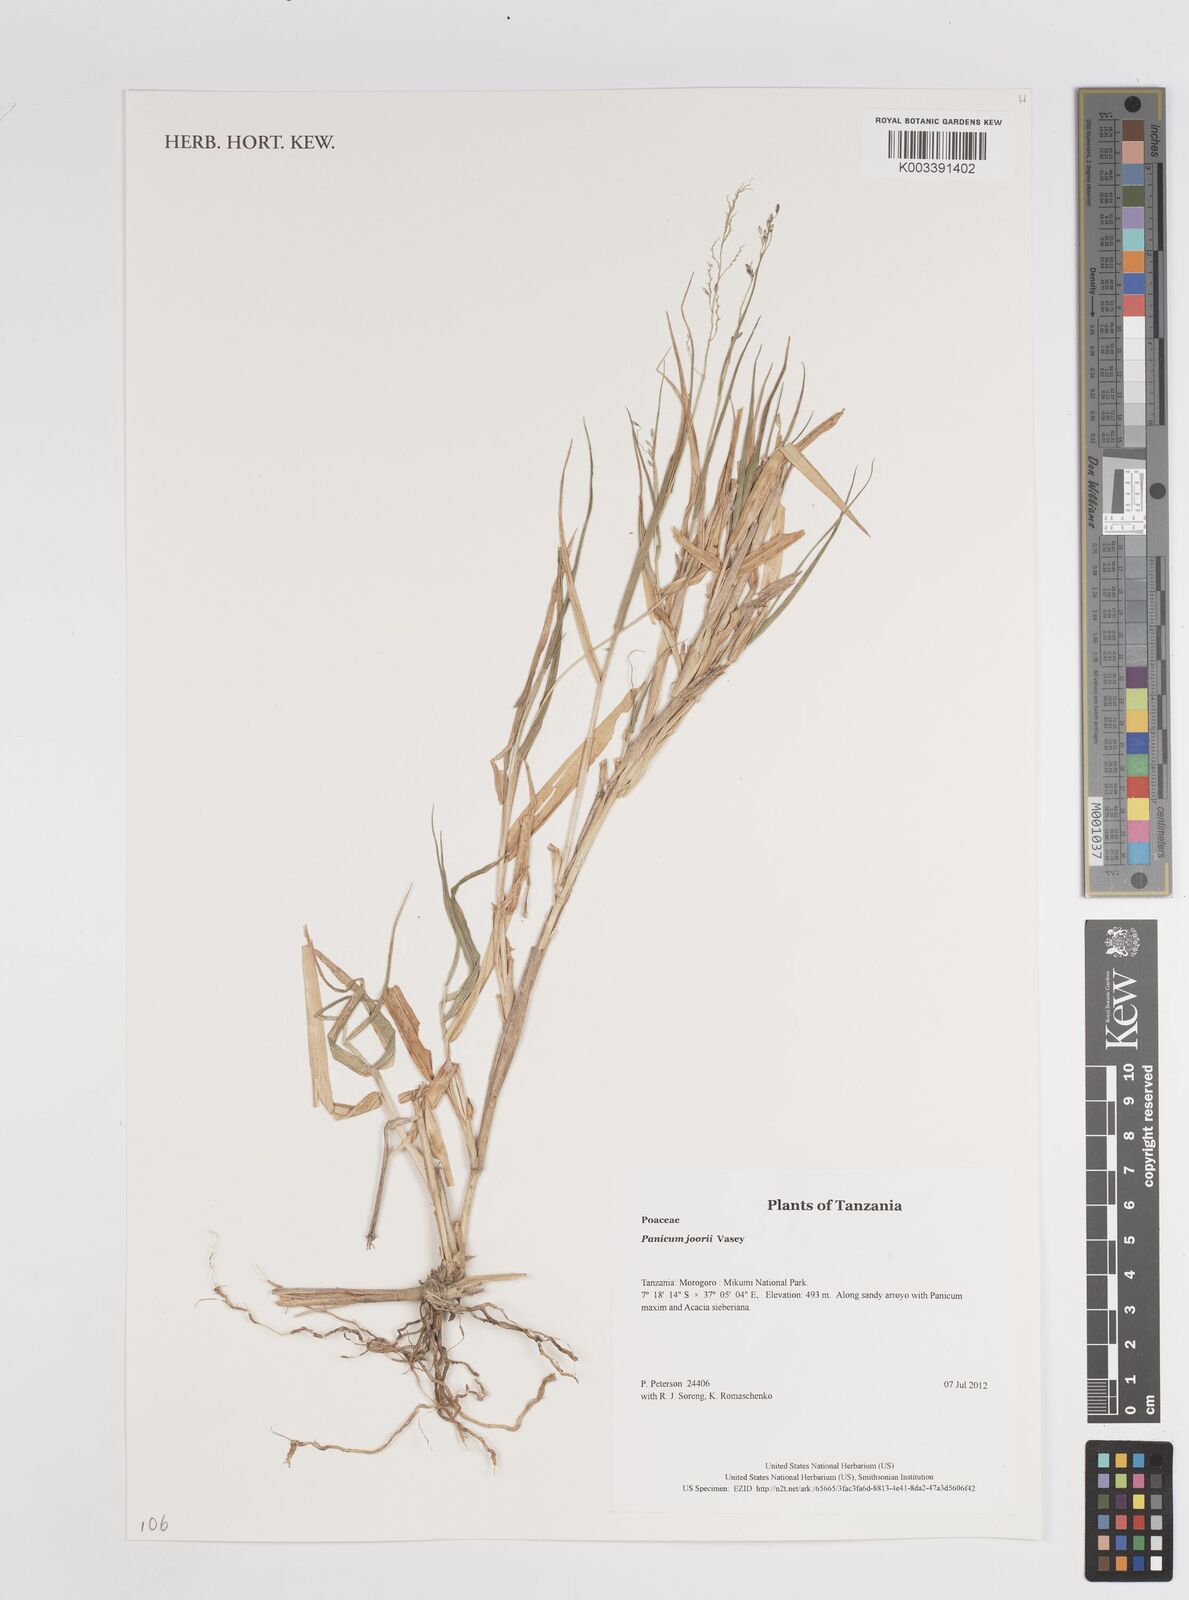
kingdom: Plantae
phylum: Tracheophyta
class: Liliopsida
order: Poales
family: Poaceae
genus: Panicum
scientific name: Panicum
